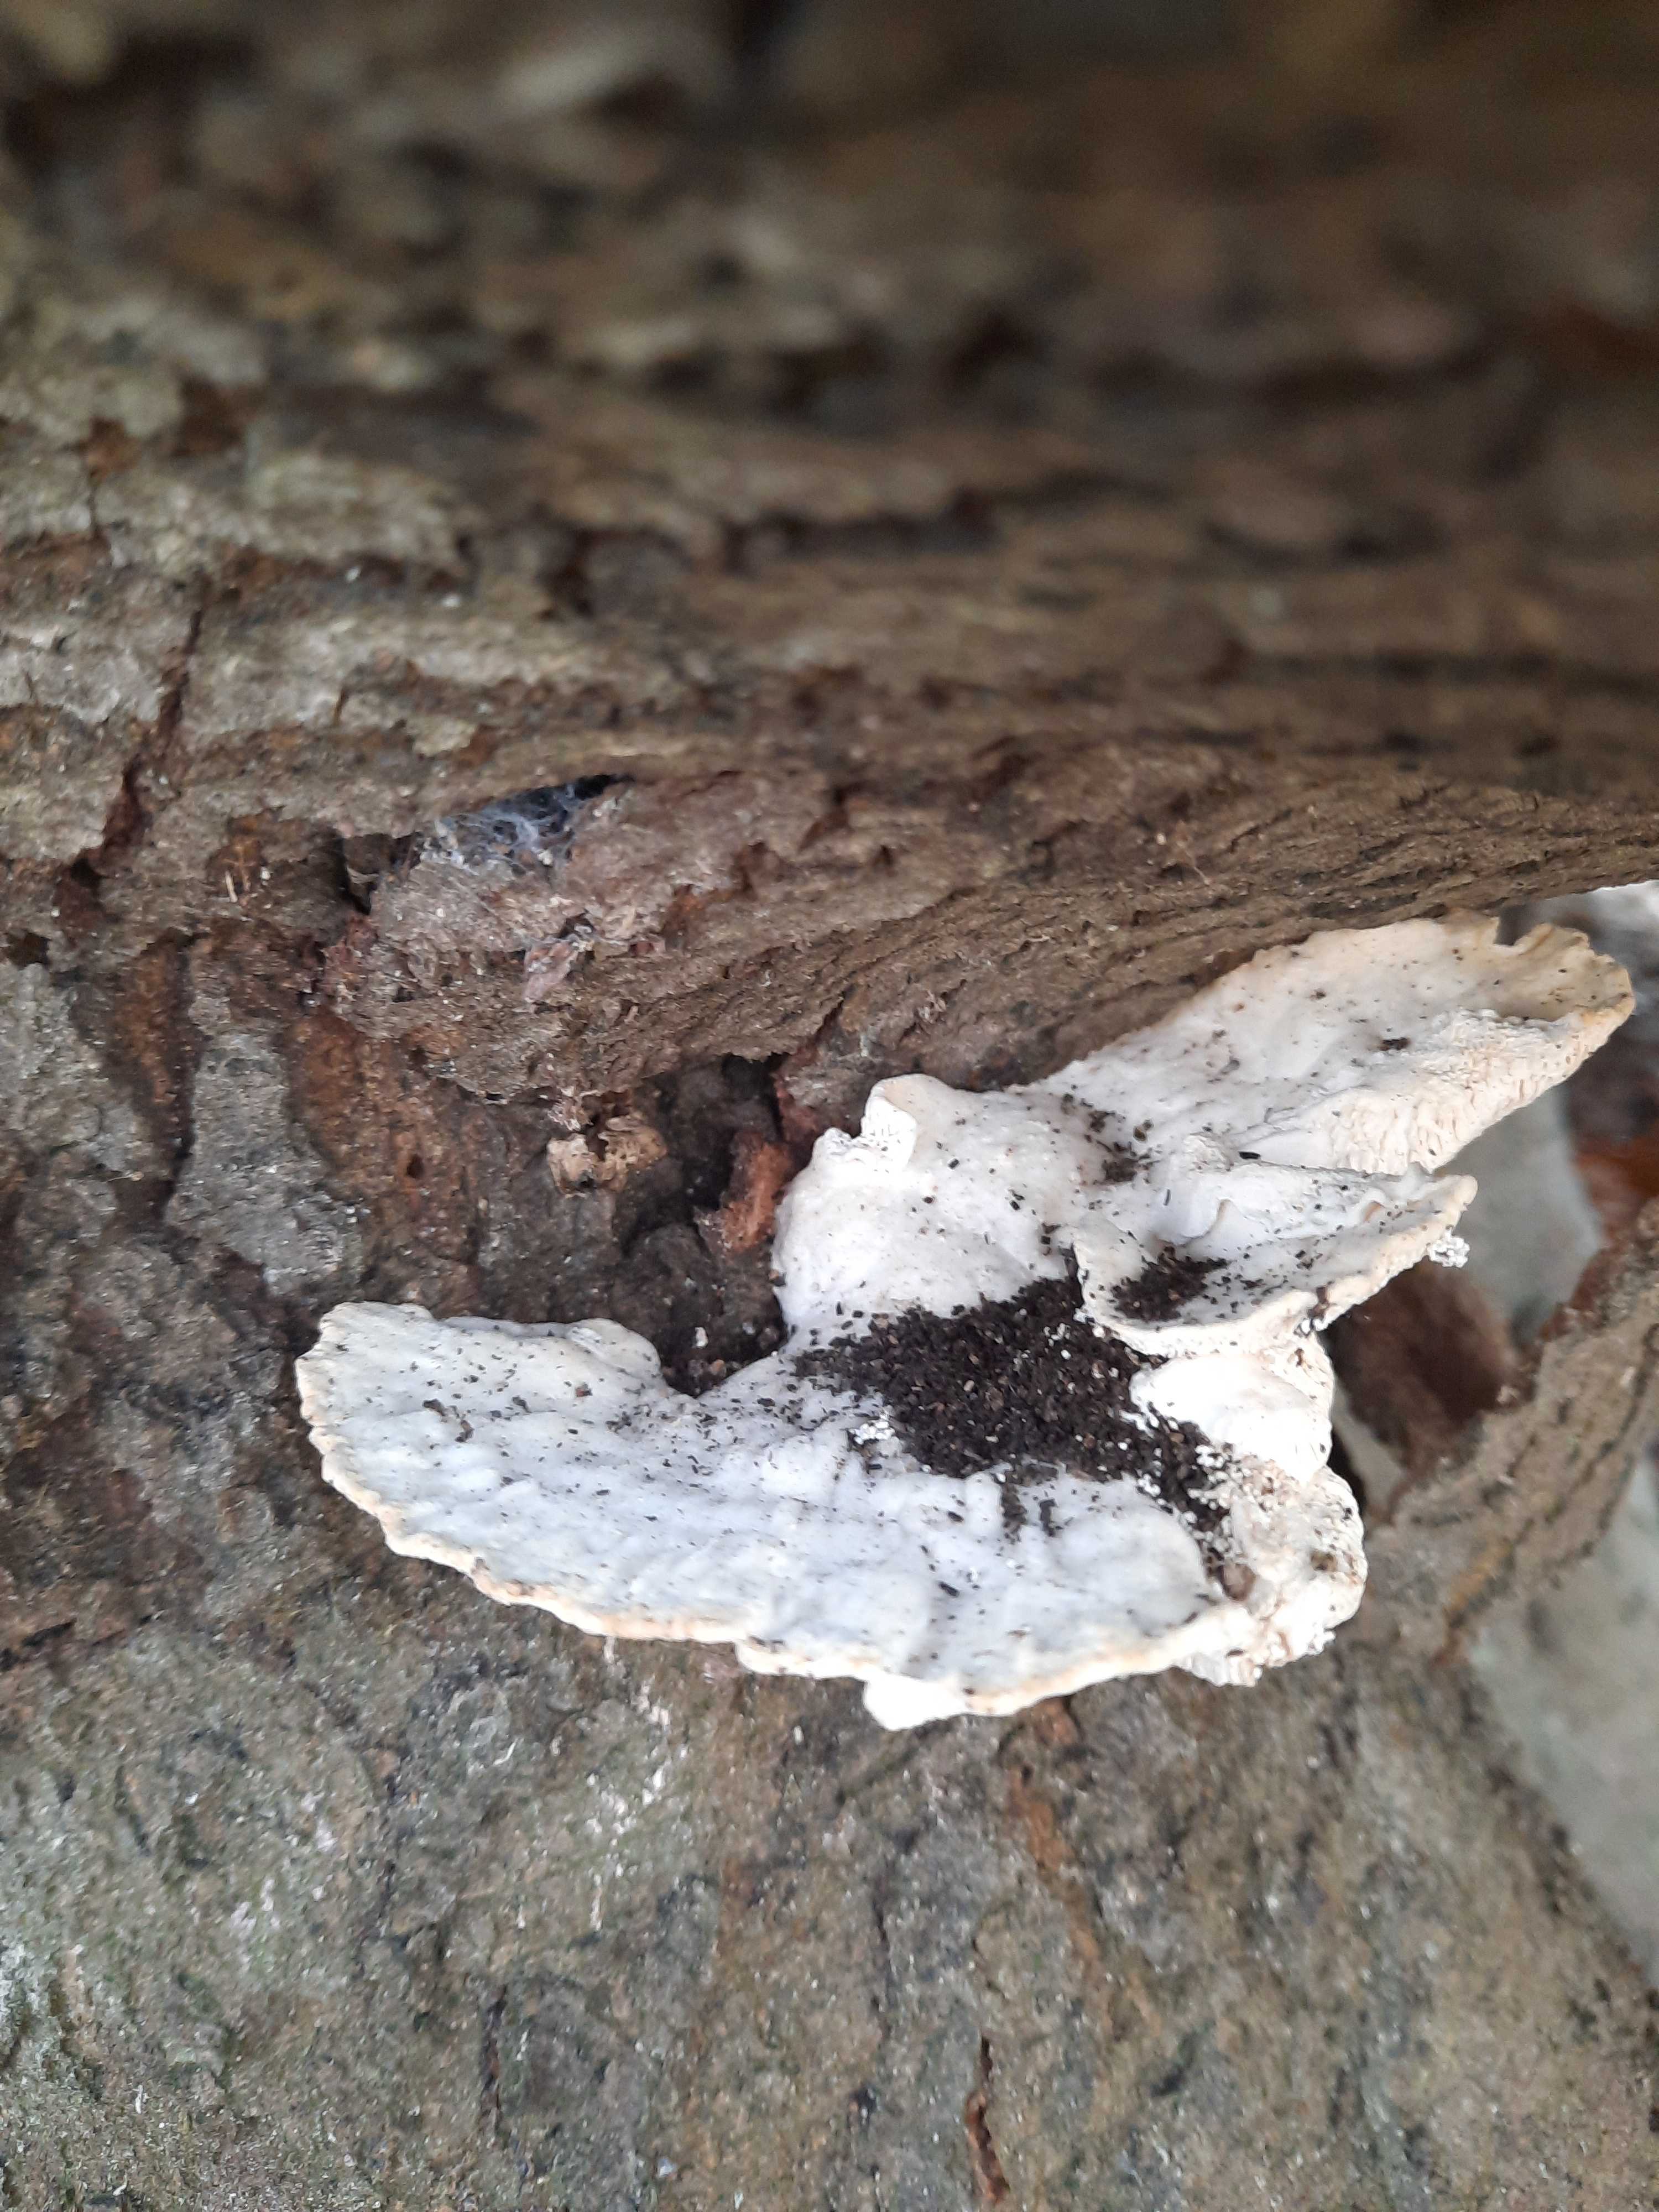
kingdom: Fungi
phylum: Basidiomycota
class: Agaricomycetes
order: Polyporales
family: Polyporaceae
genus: Trametes
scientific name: Trametes gibbosa
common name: puklet læderporesvamp
